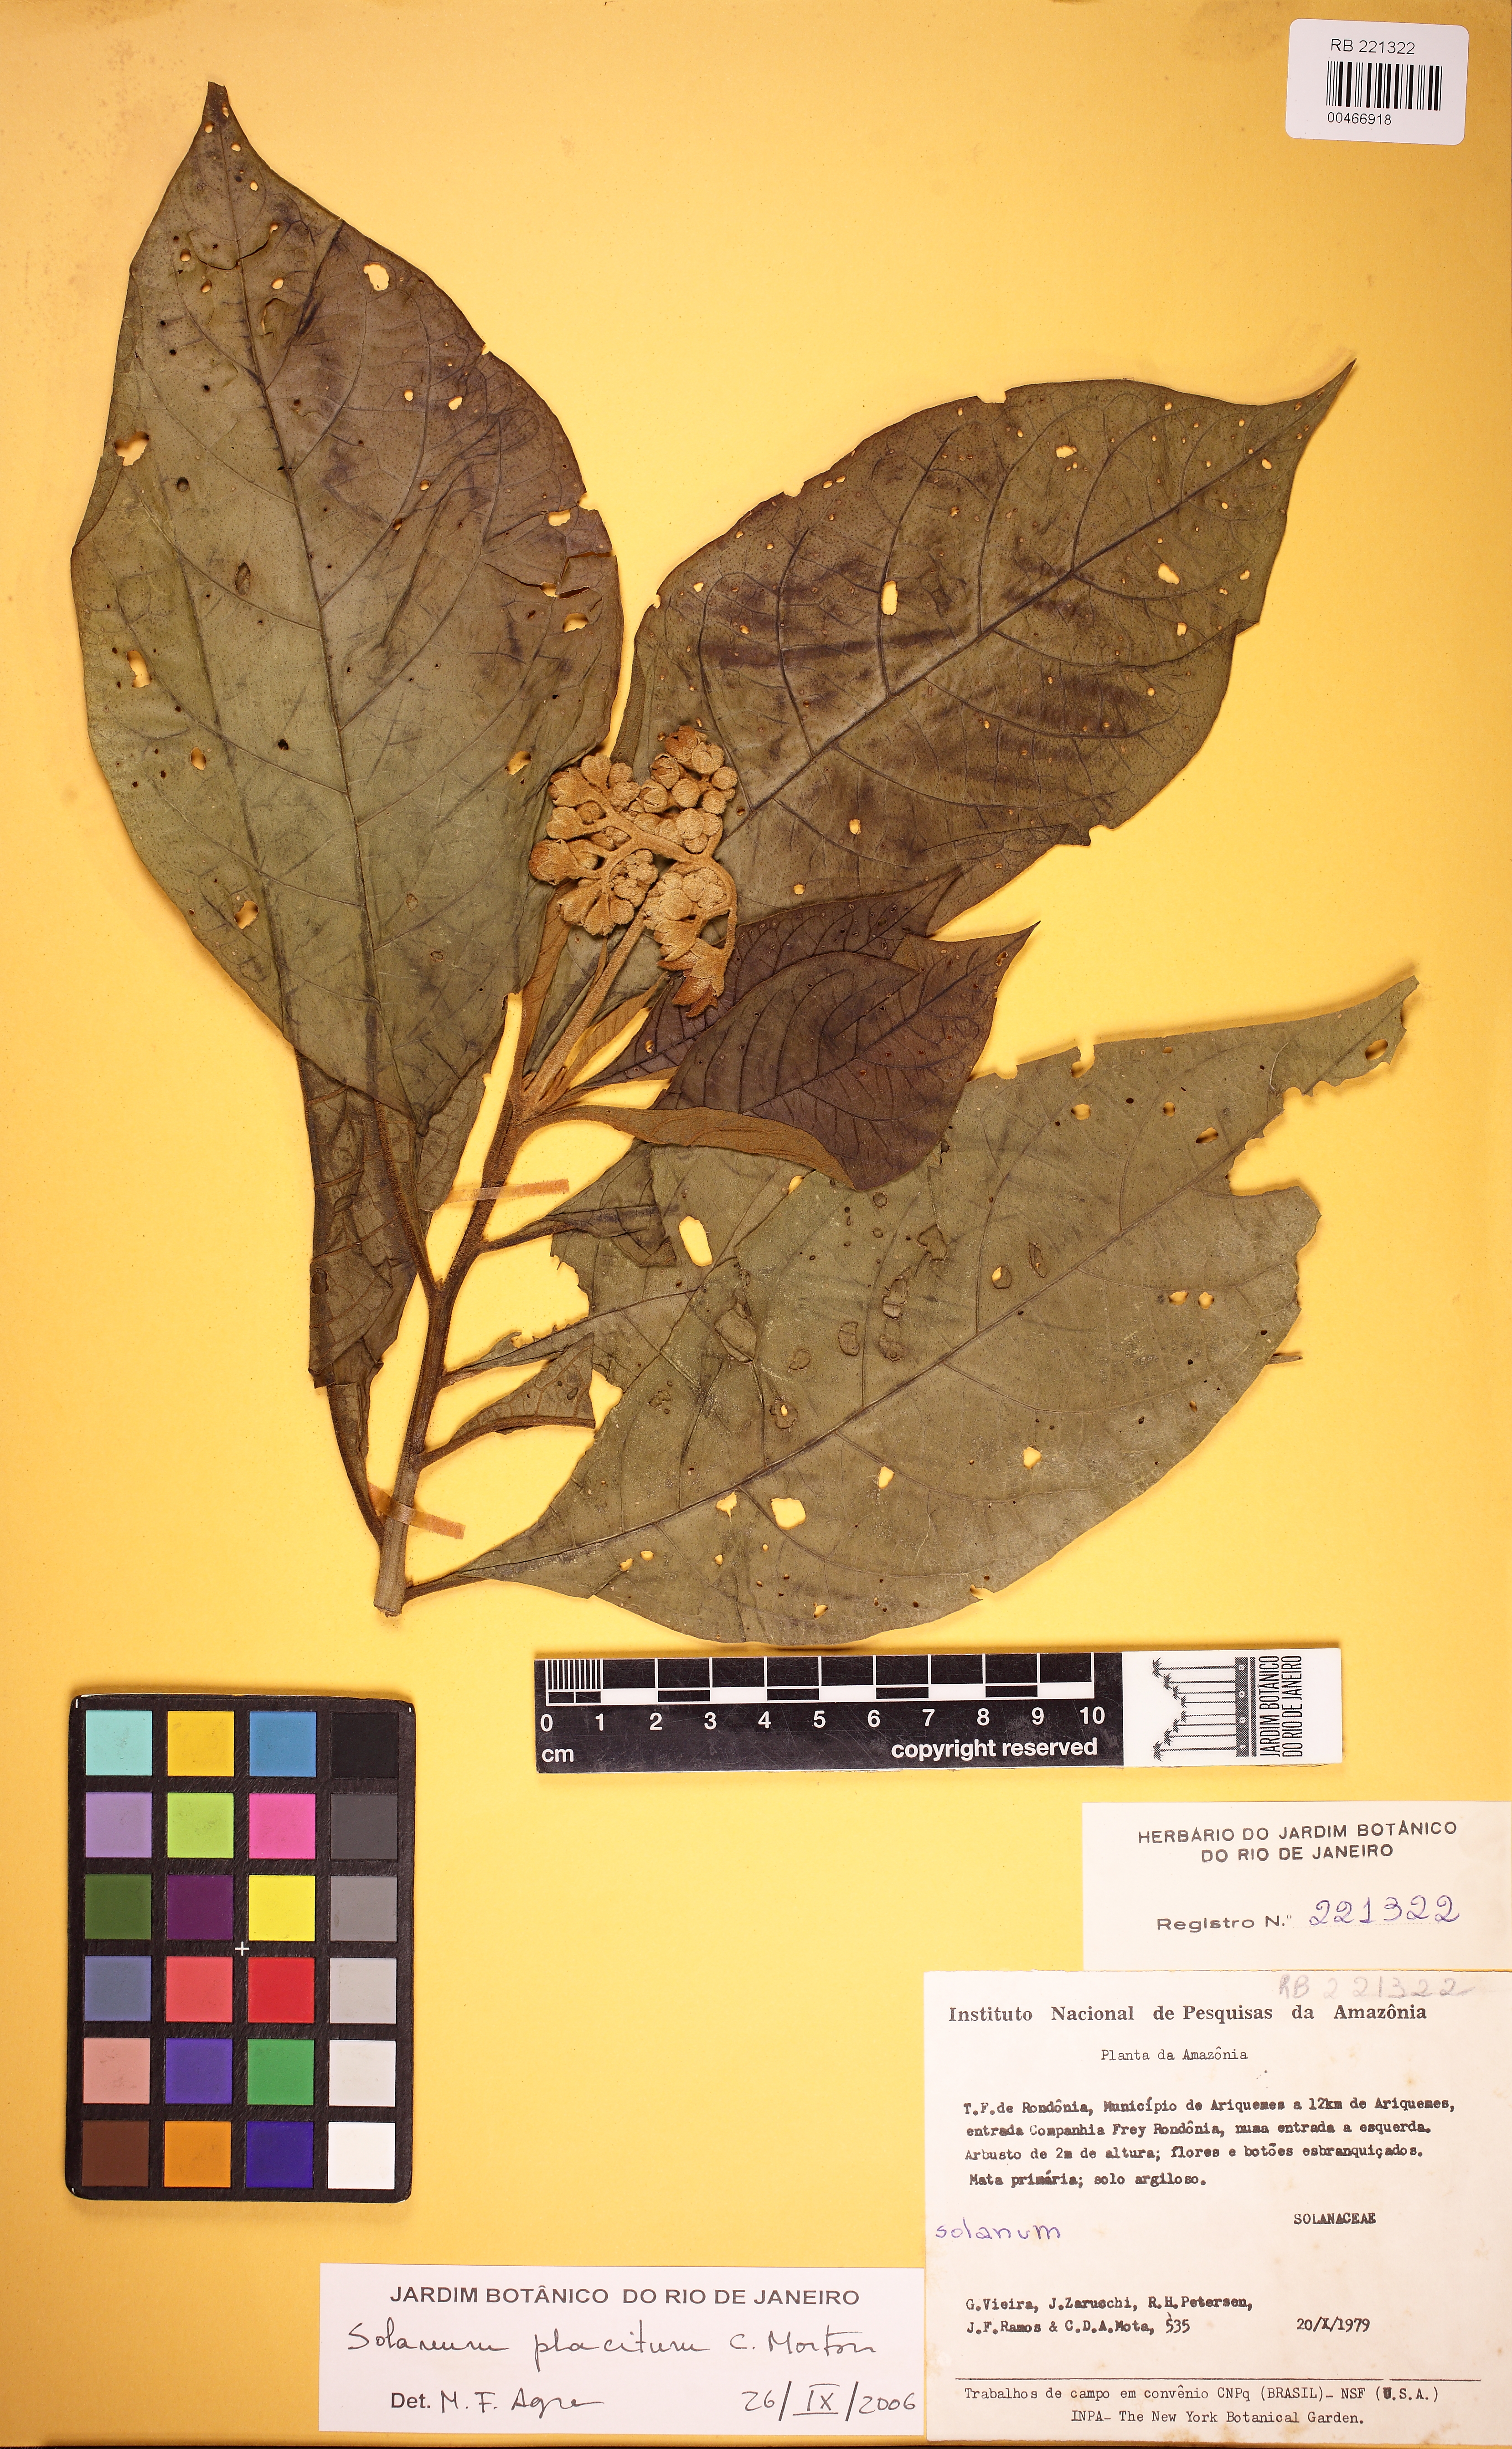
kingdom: Plantae
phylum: Tracheophyta
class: Magnoliopsida
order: Solanales
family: Solanaceae
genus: Solanum
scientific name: Solanum placitum
